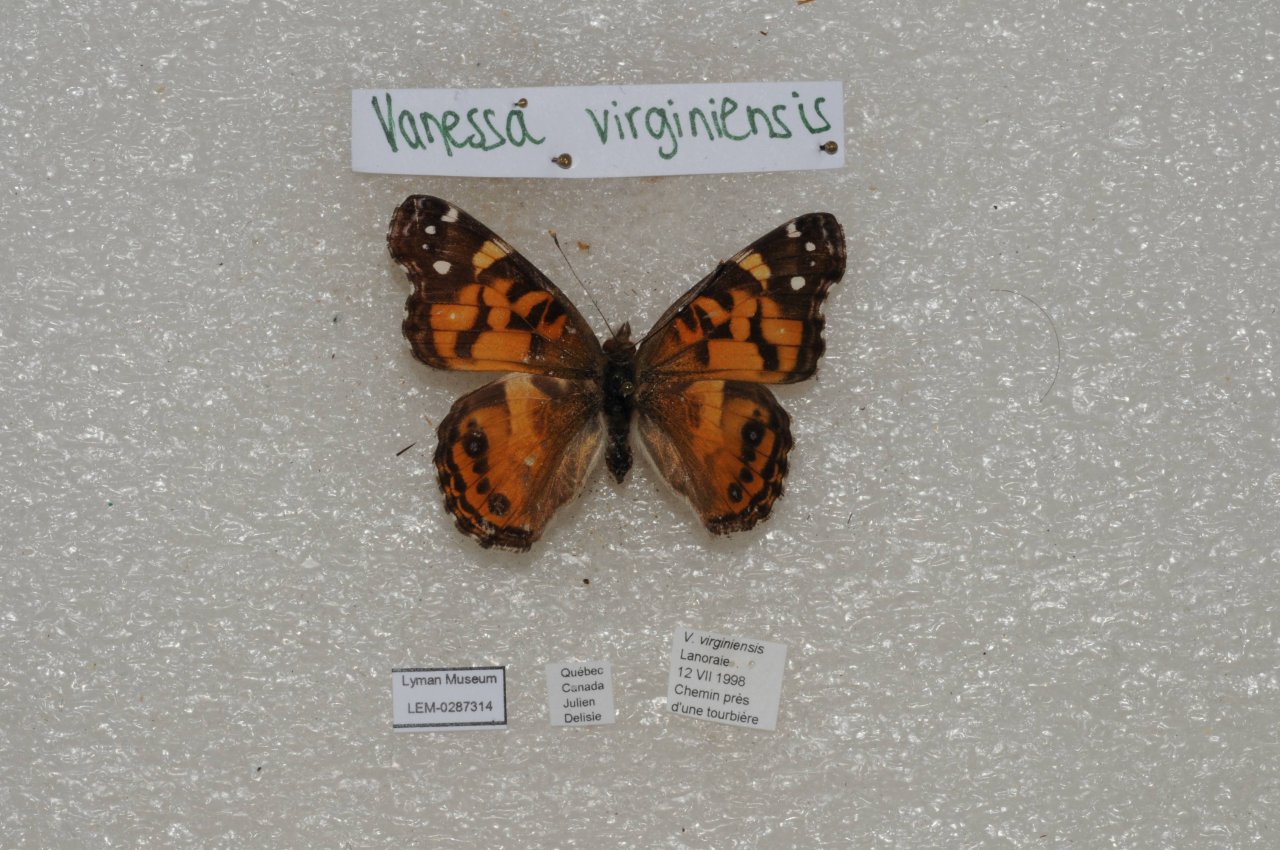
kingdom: Animalia
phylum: Arthropoda
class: Insecta
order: Lepidoptera
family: Nymphalidae
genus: Vanessa
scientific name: Vanessa virginiensis
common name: American Lady
